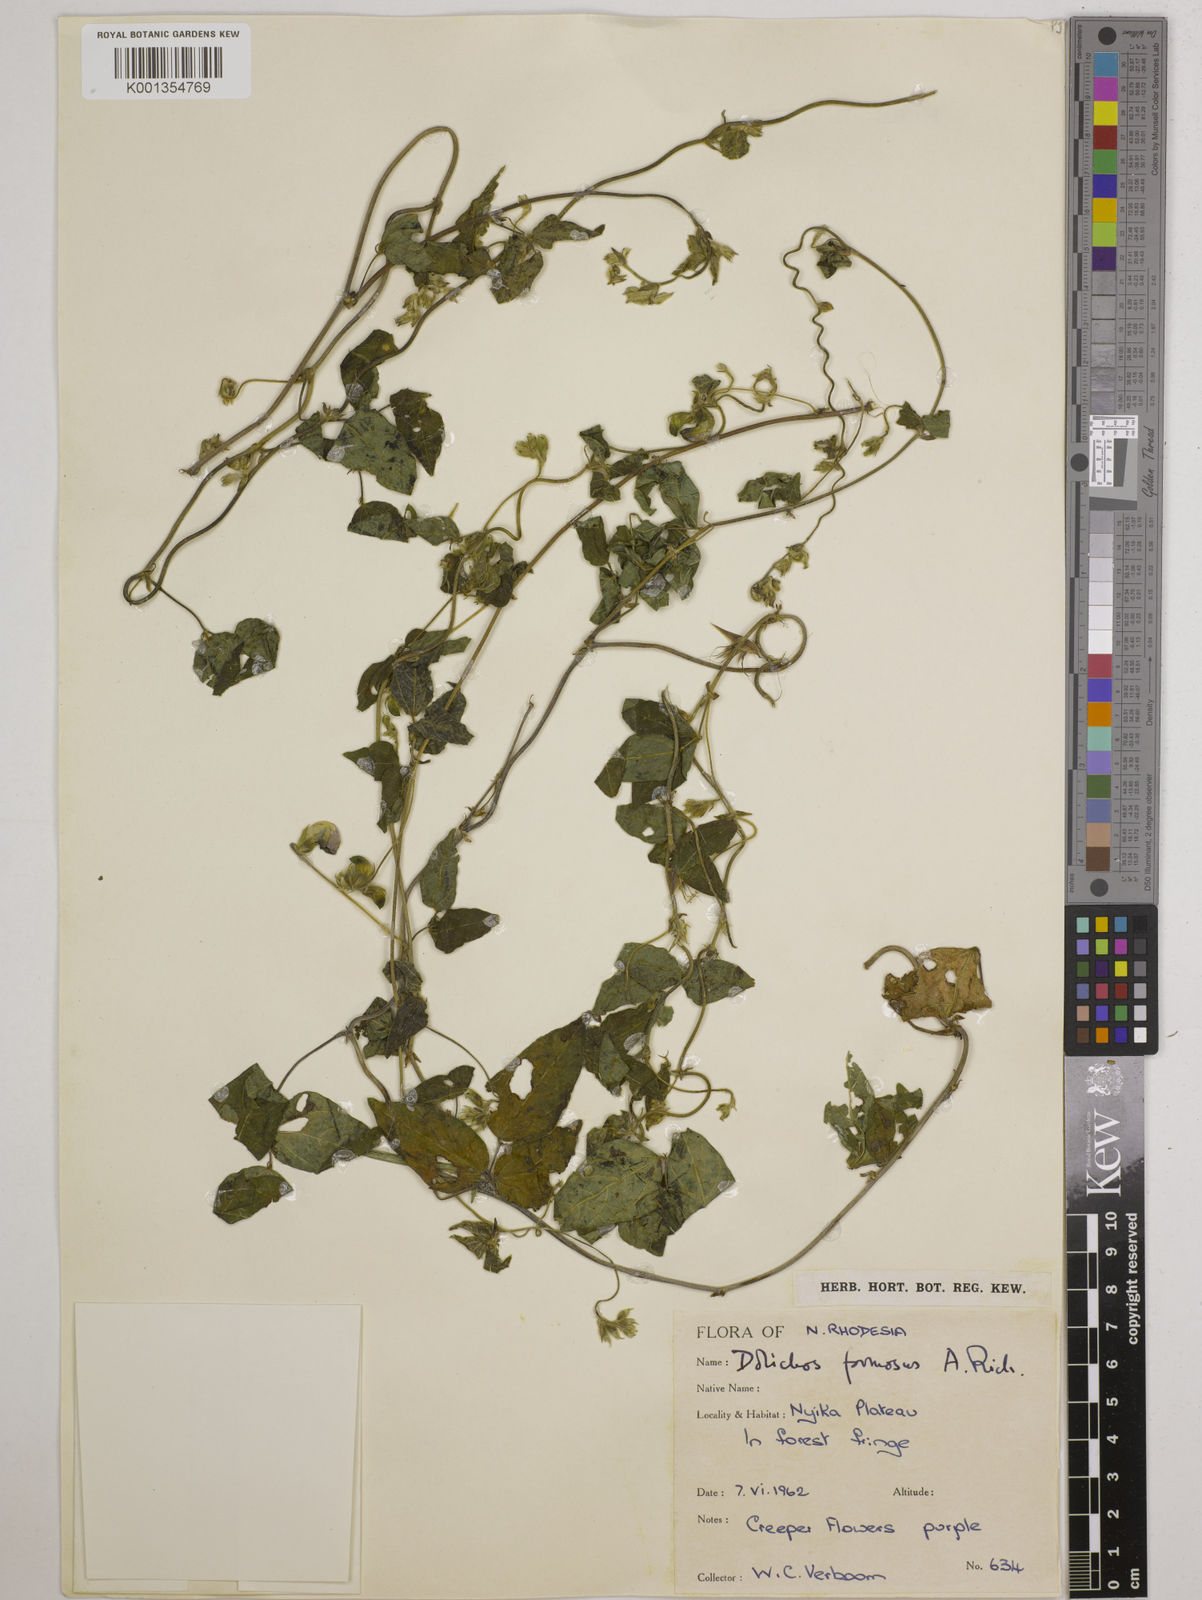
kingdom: Plantae
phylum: Tracheophyta
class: Magnoliopsida
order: Fabales
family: Fabaceae
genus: Dolichos
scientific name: Dolichos
